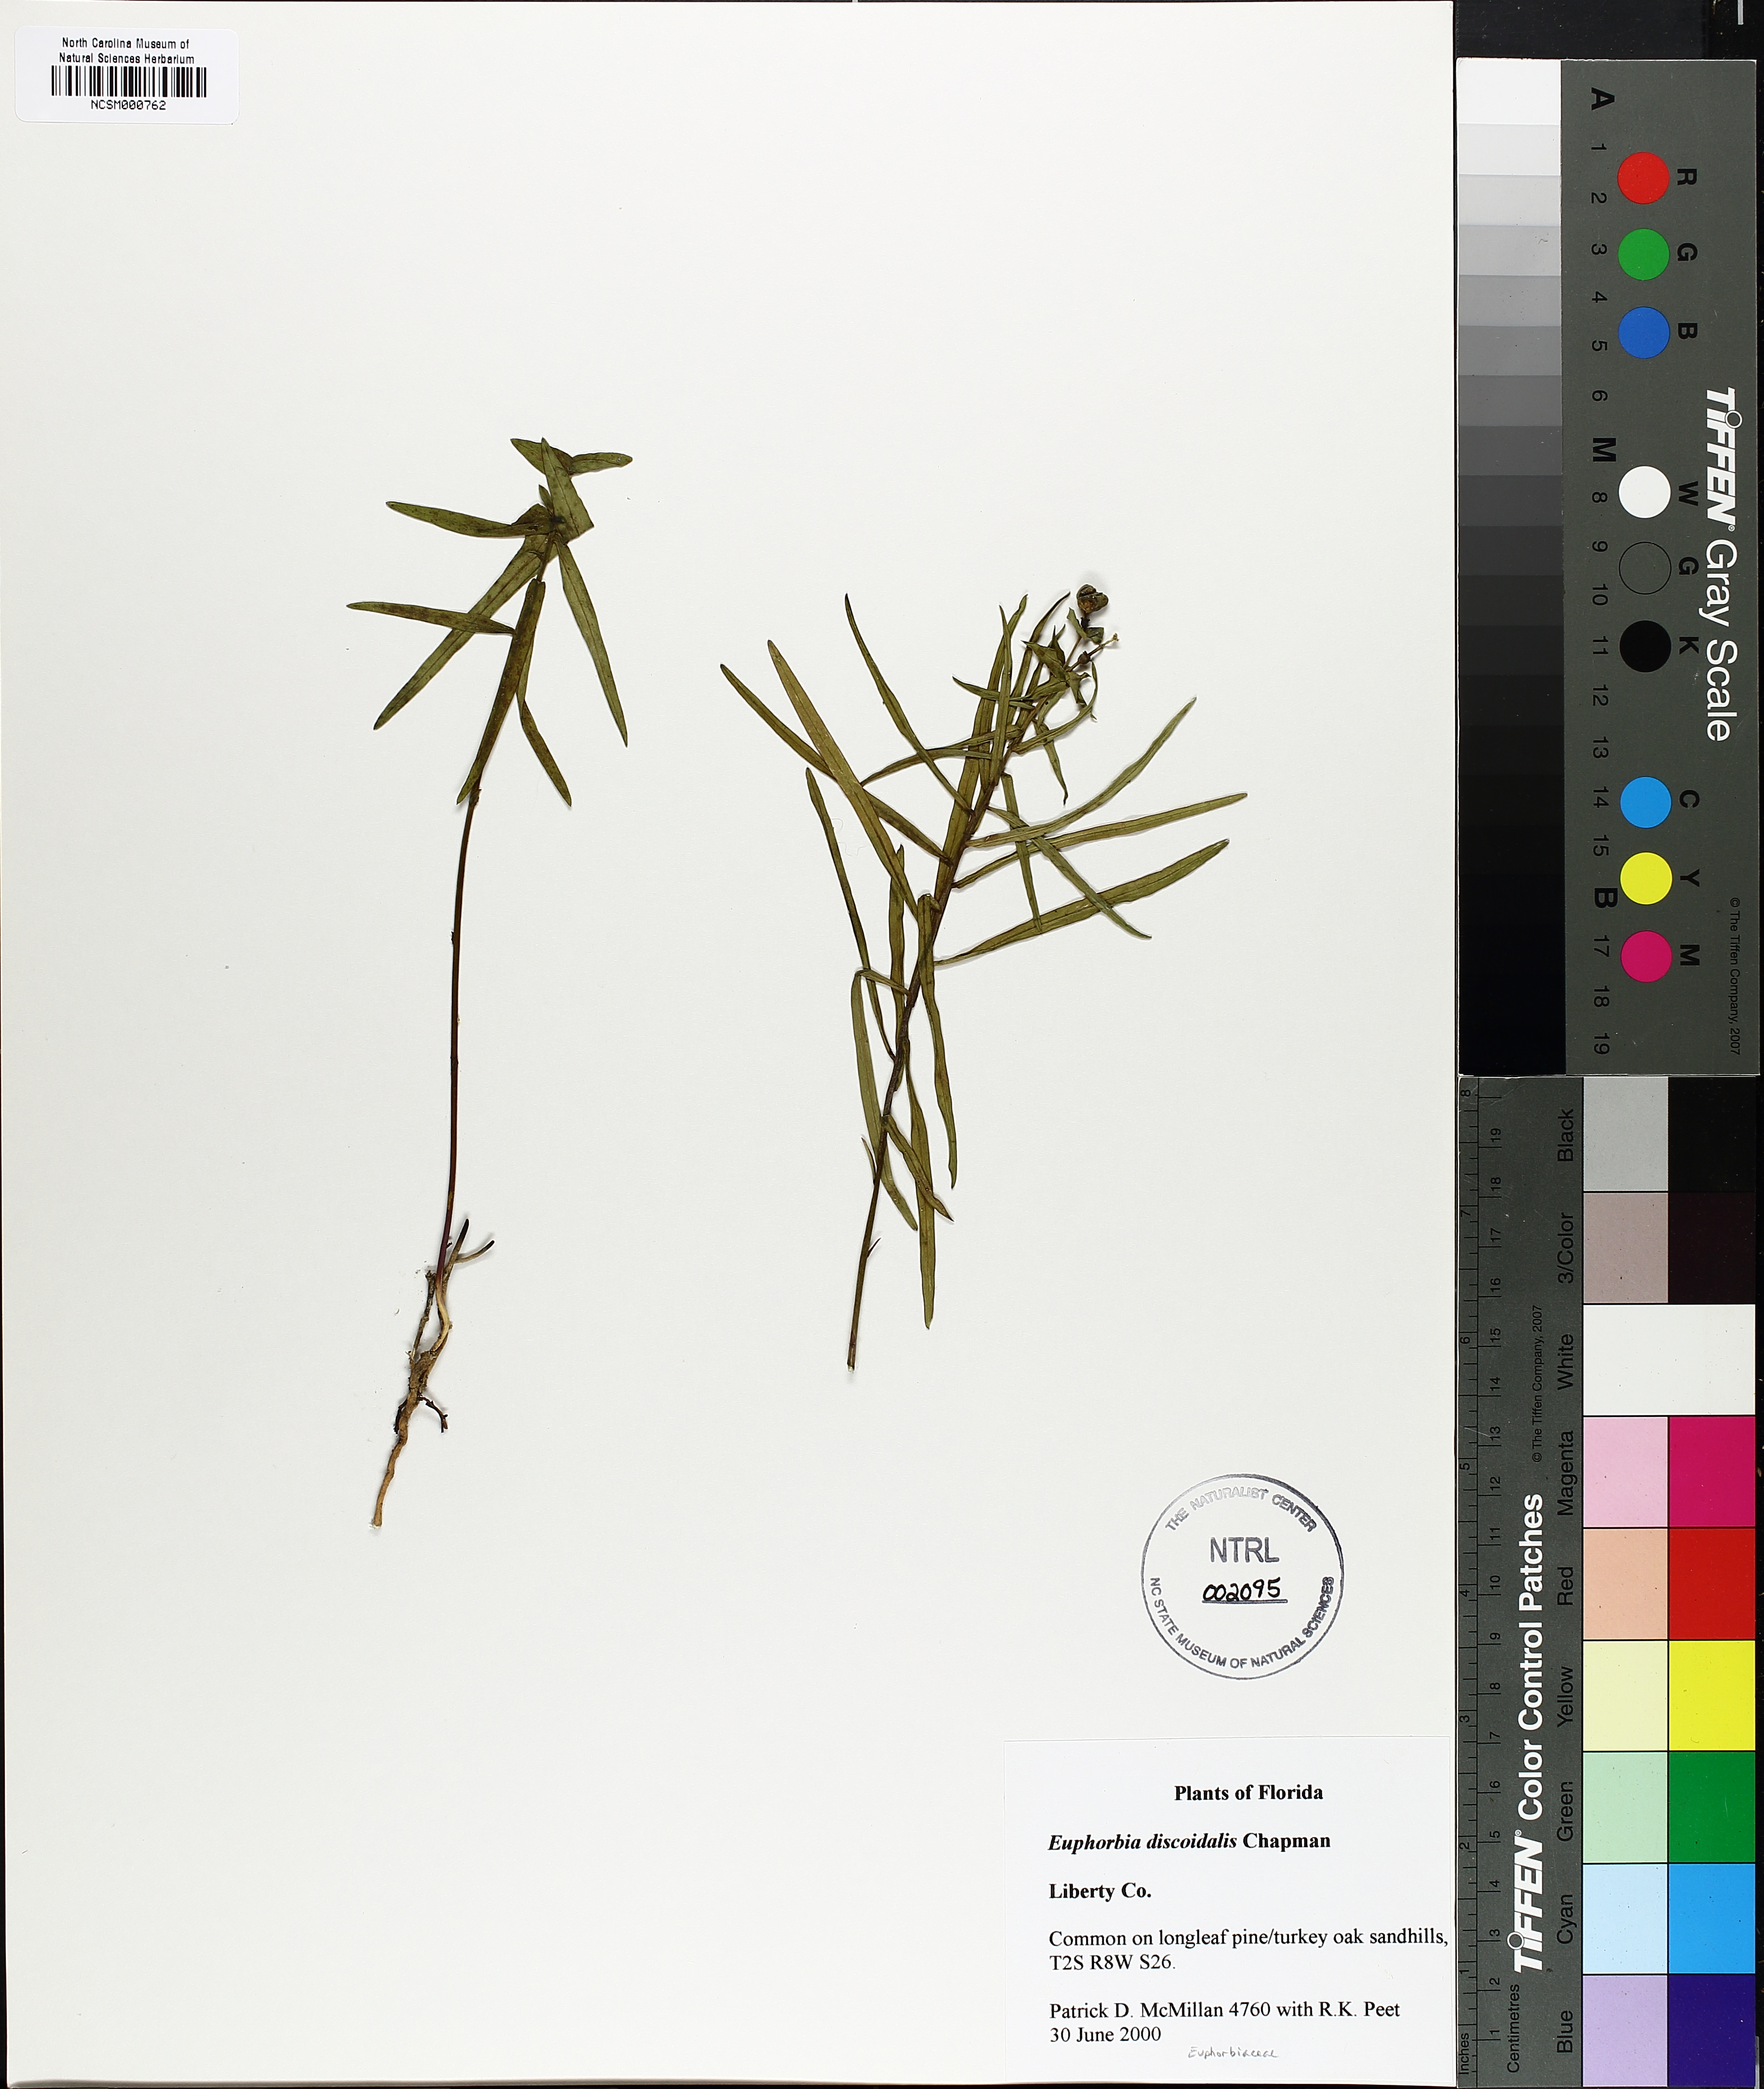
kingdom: Plantae
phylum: Tracheophyta
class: Magnoliopsida
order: Malpighiales
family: Euphorbiaceae
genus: Euphorbia
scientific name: Euphorbia discoidalis
